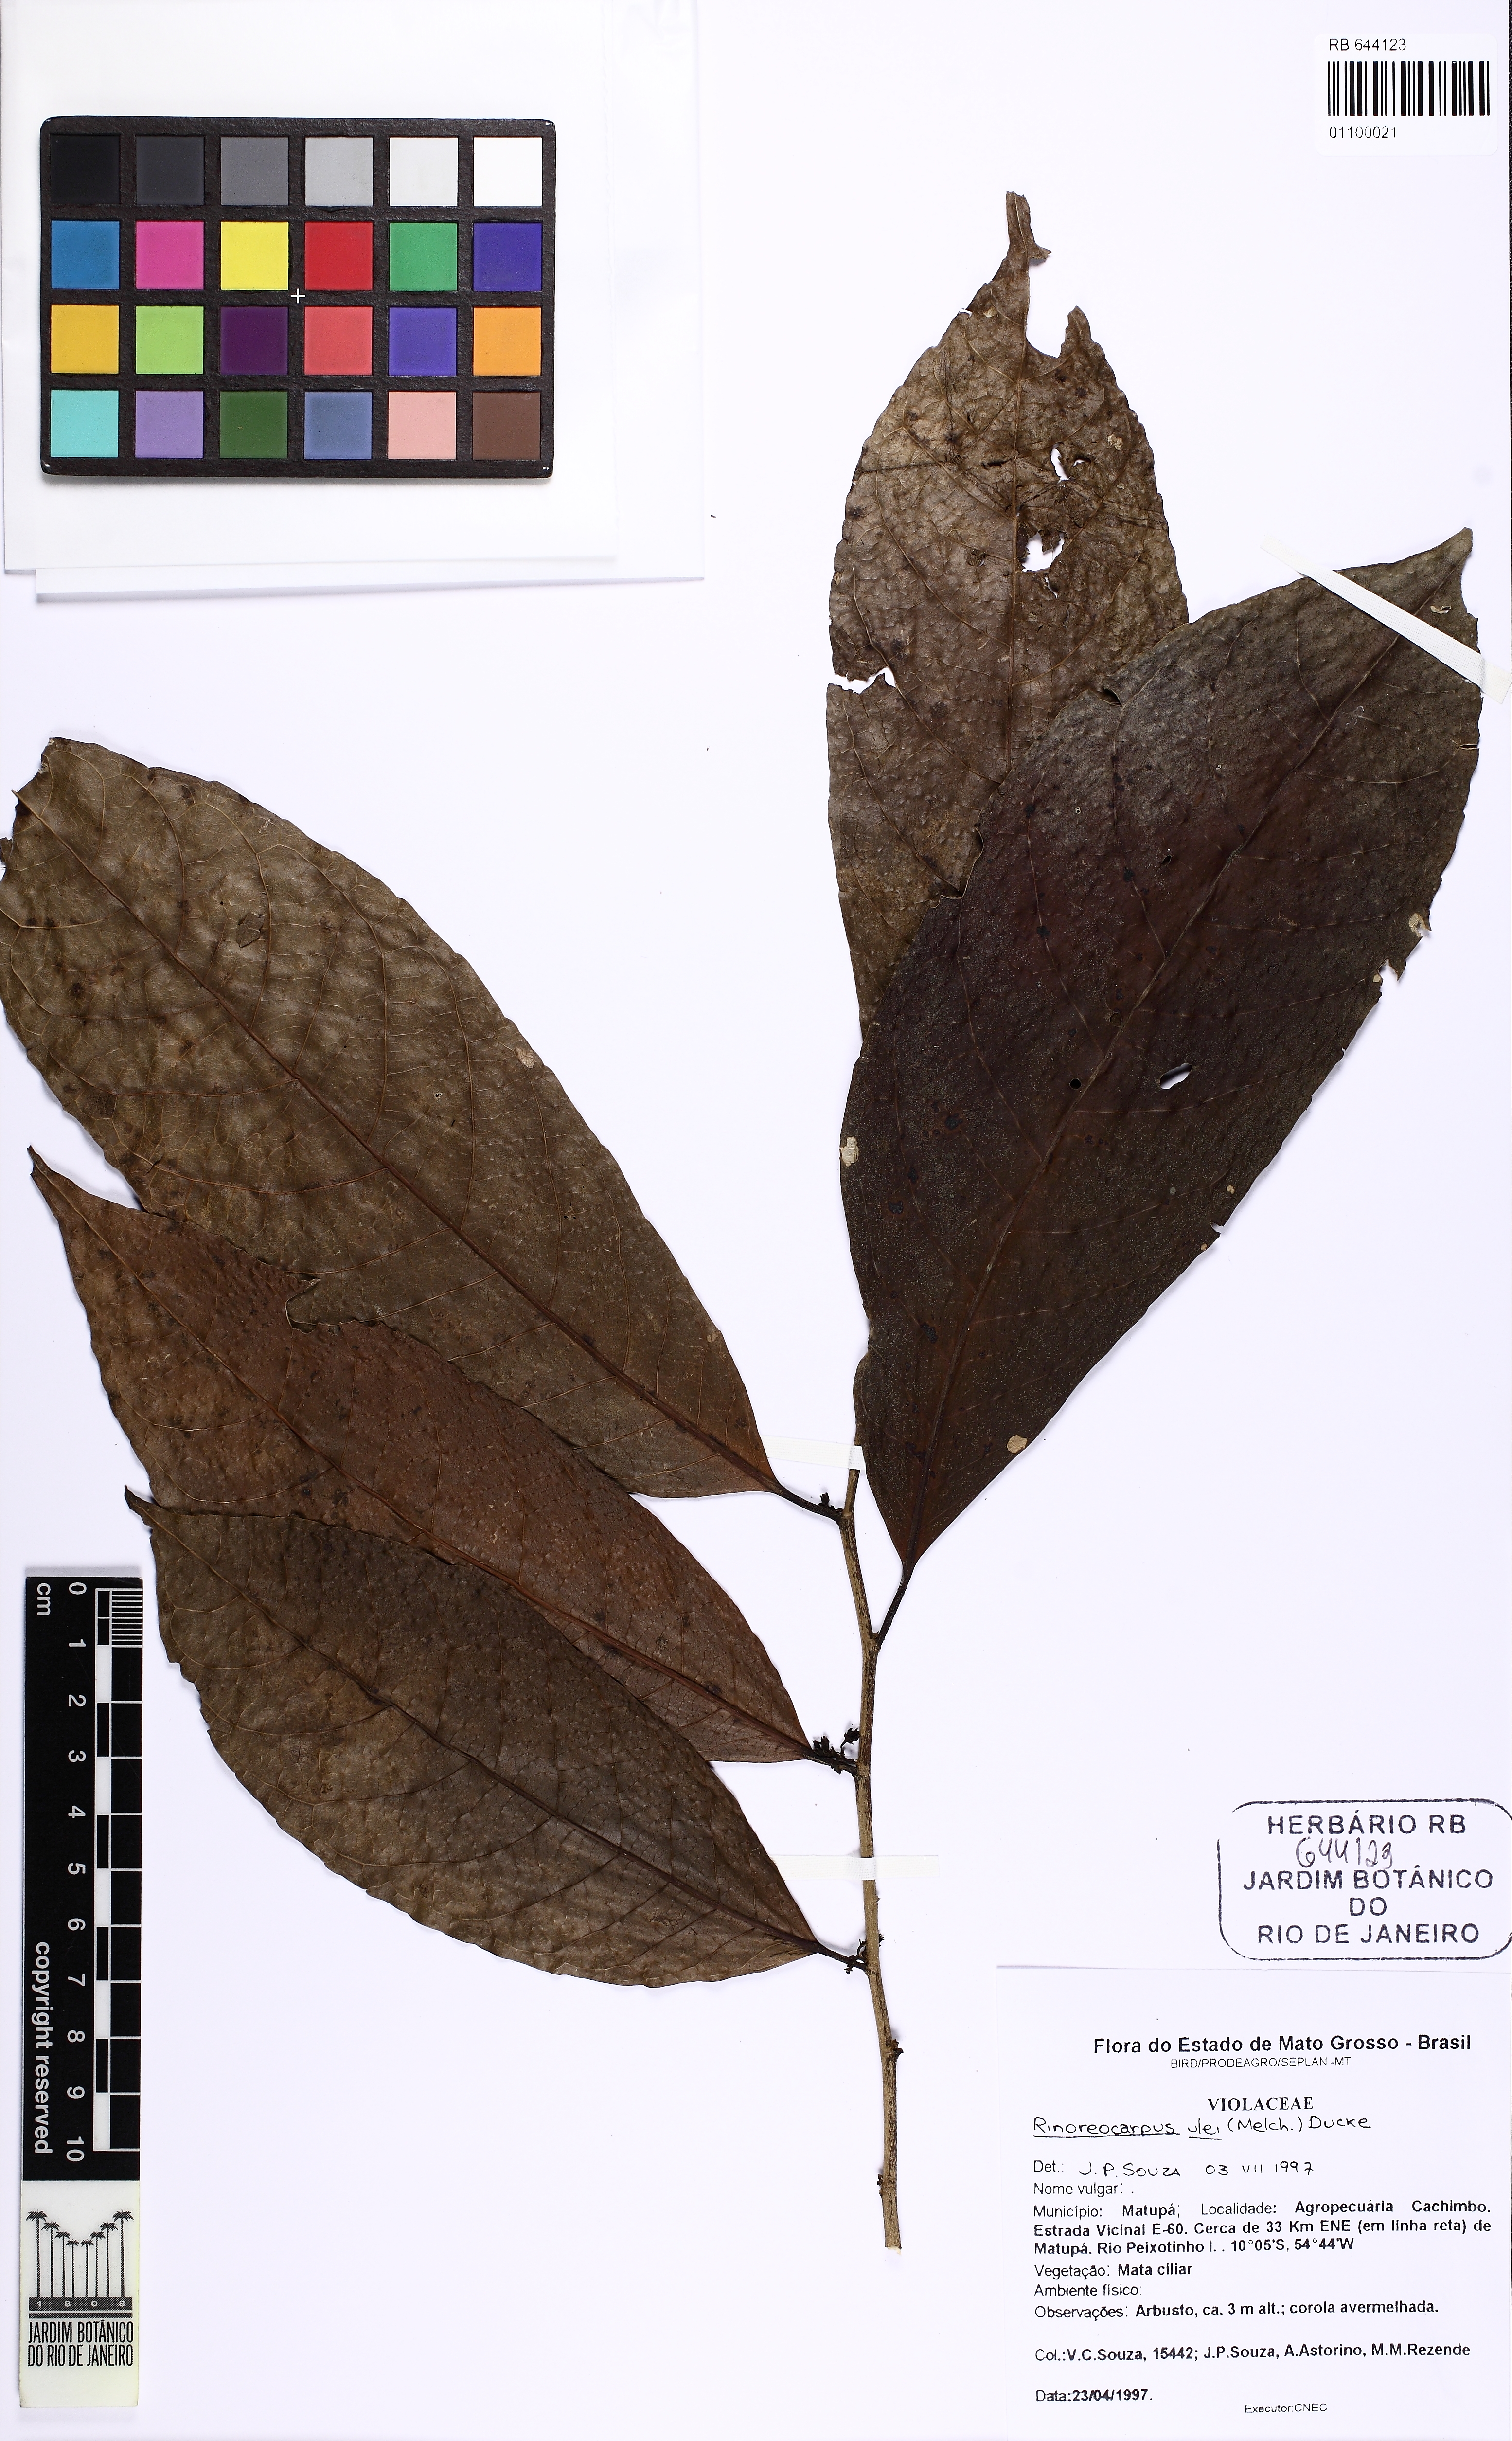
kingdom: Plantae
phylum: Tracheophyta
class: Magnoliopsida
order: Malpighiales
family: Violaceae
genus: Rinoreocarpus
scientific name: Rinoreocarpus ulei
